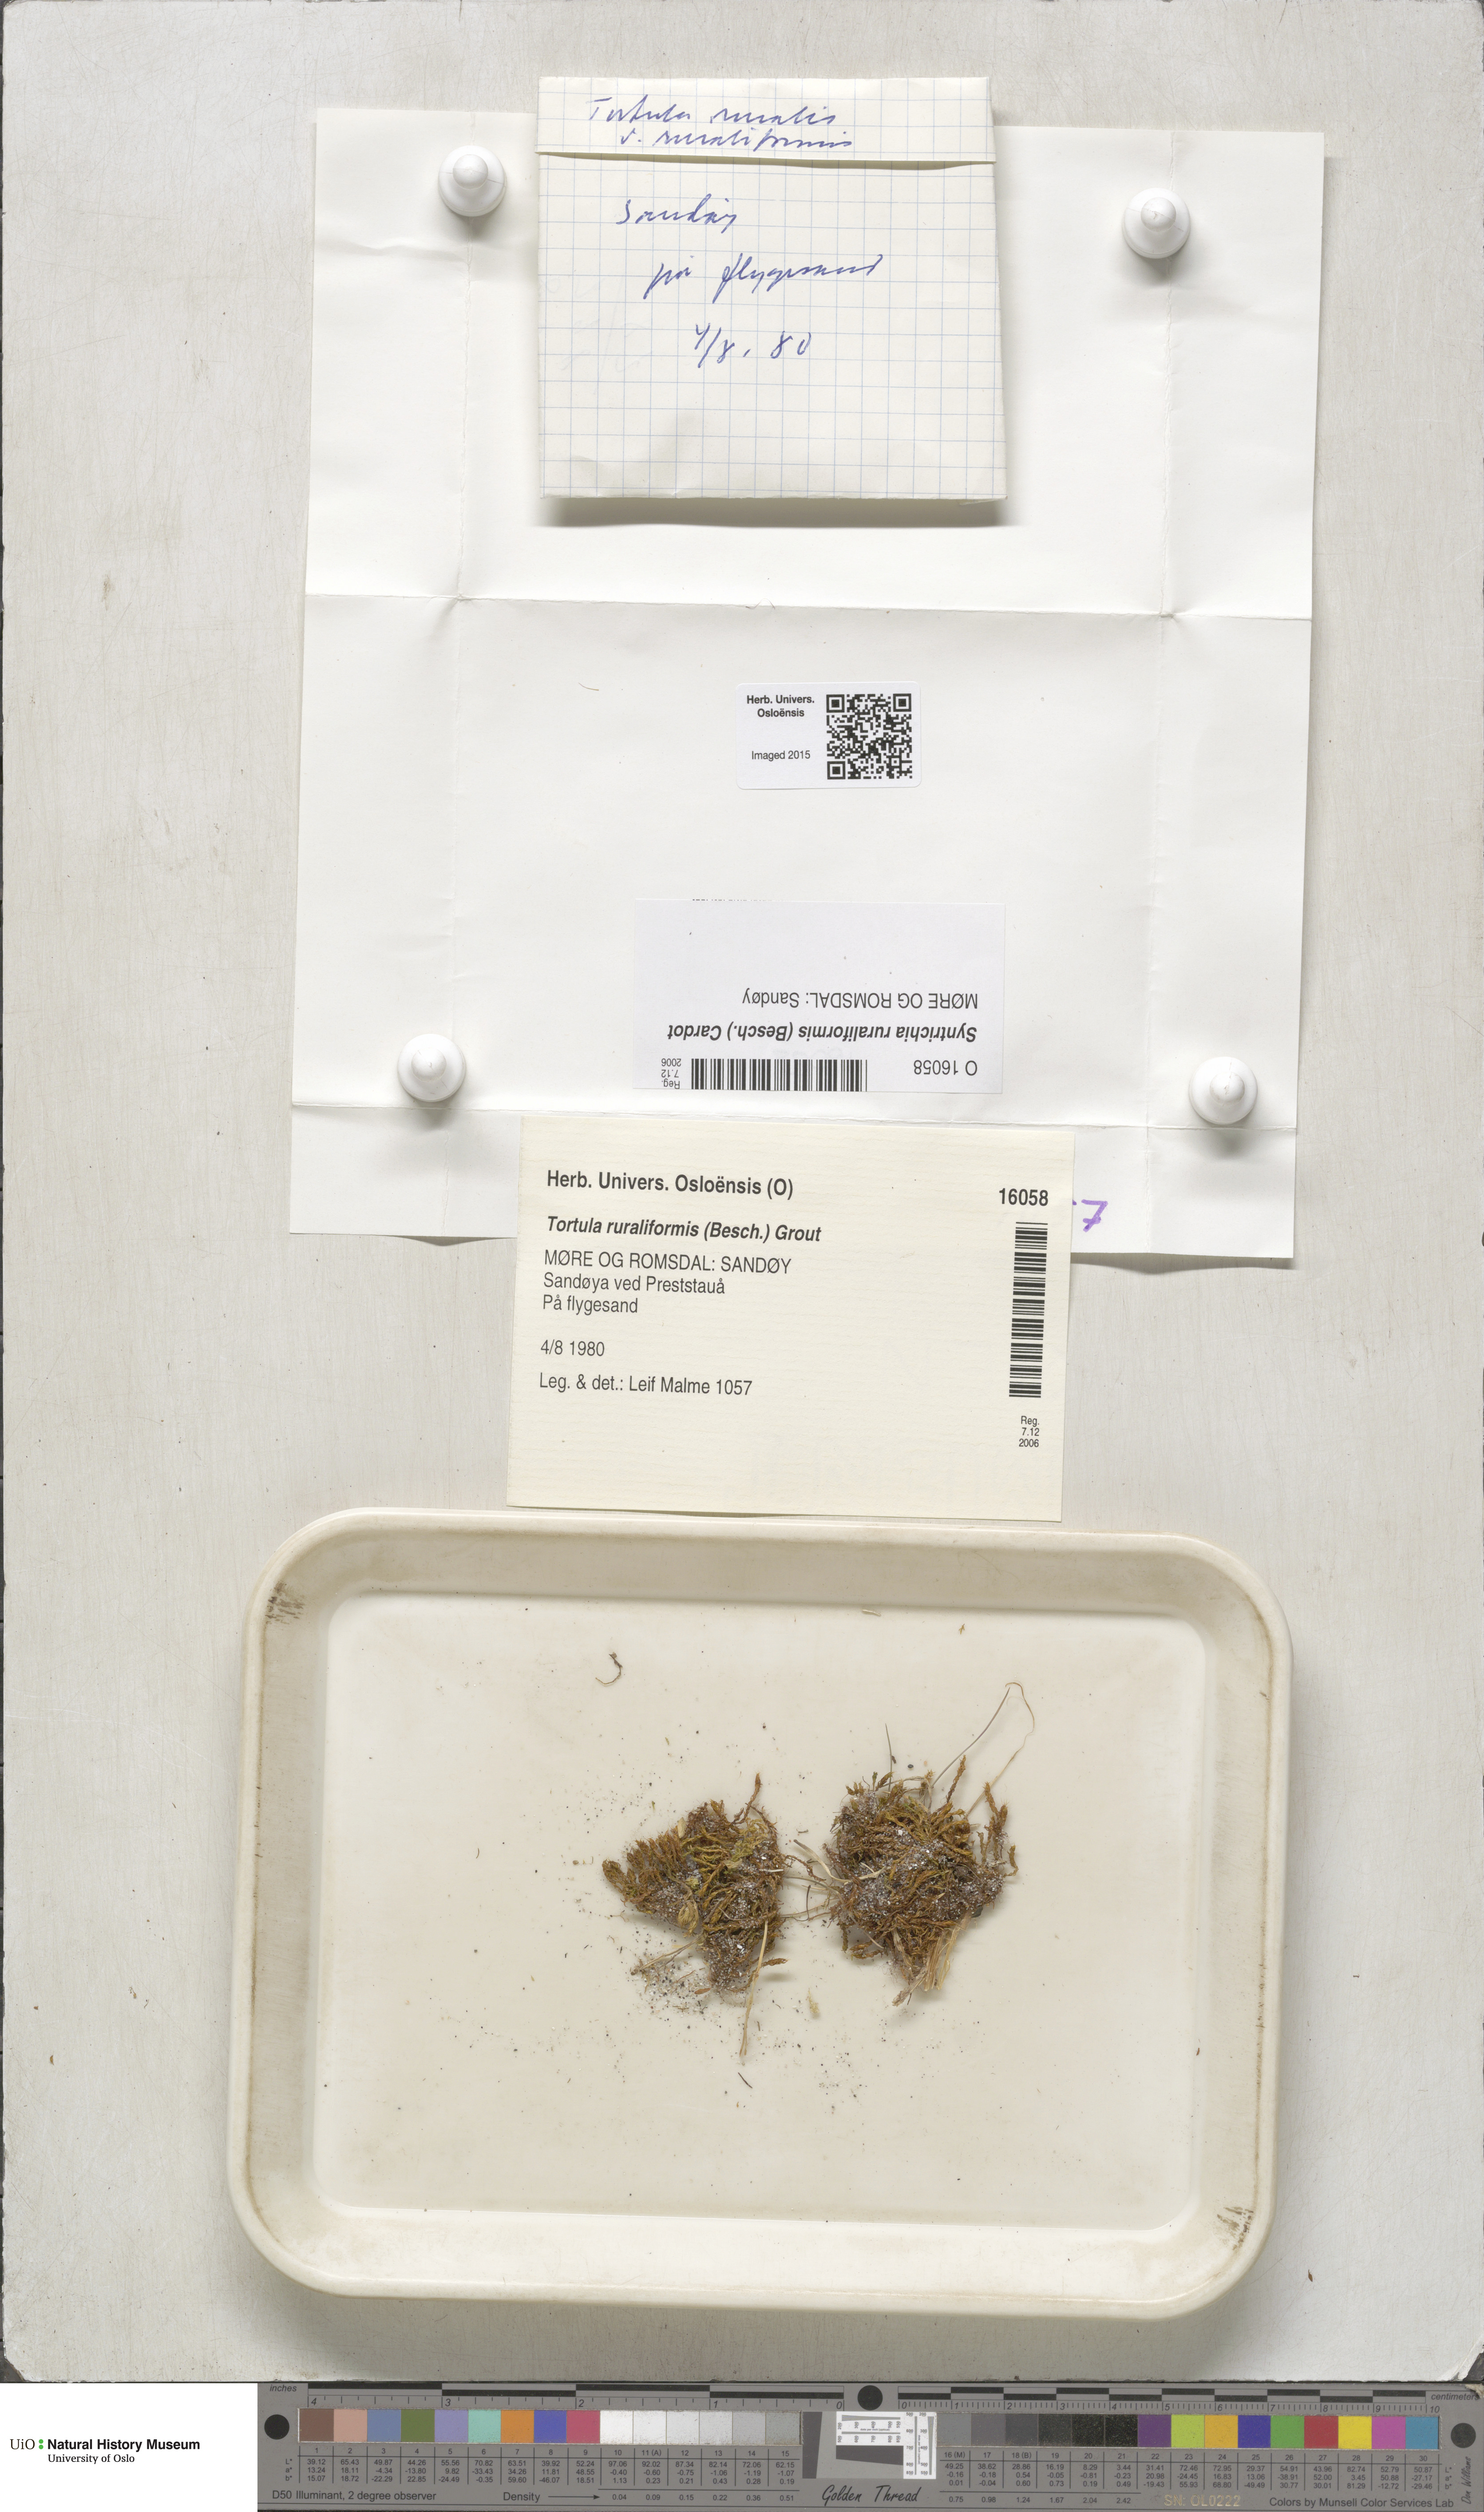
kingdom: Plantae
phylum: Bryophyta
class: Bryopsida
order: Pottiales
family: Pottiaceae
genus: Syntrichia
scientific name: Syntrichia ruralis
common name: Sidewalk screw moss
